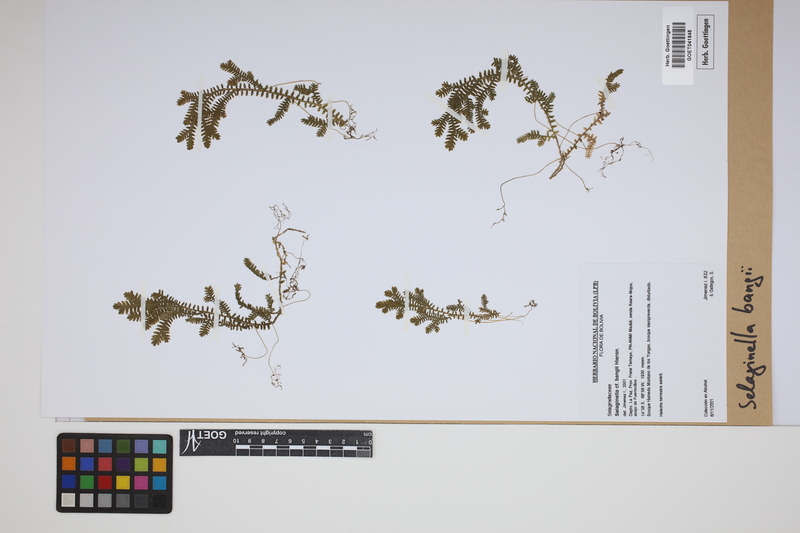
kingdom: Plantae
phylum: Tracheophyta
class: Lycopodiopsida
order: Selaginellales
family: Selaginellaceae
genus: Selaginella
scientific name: Selaginella banksii
